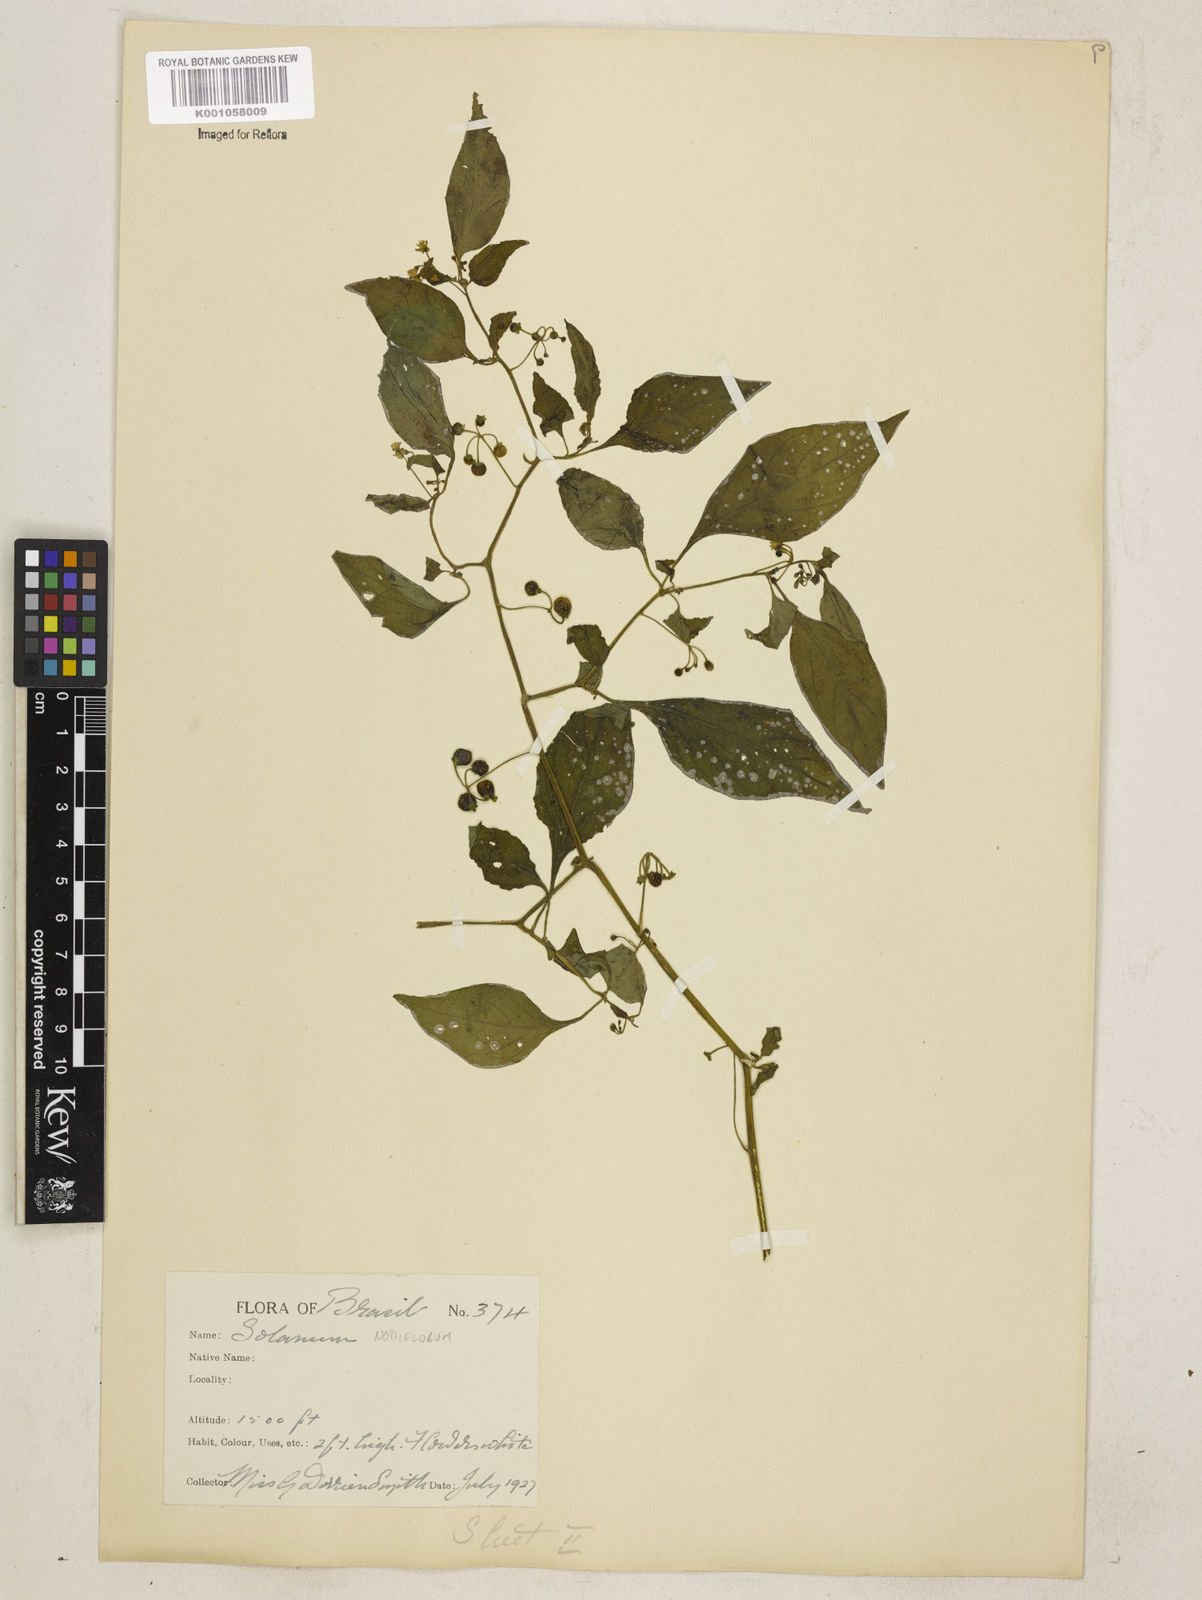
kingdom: Plantae
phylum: Tracheophyta
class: Magnoliopsida
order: Solanales
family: Solanaceae
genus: Solanum
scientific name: Solanum americanum
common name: American black nightshade
